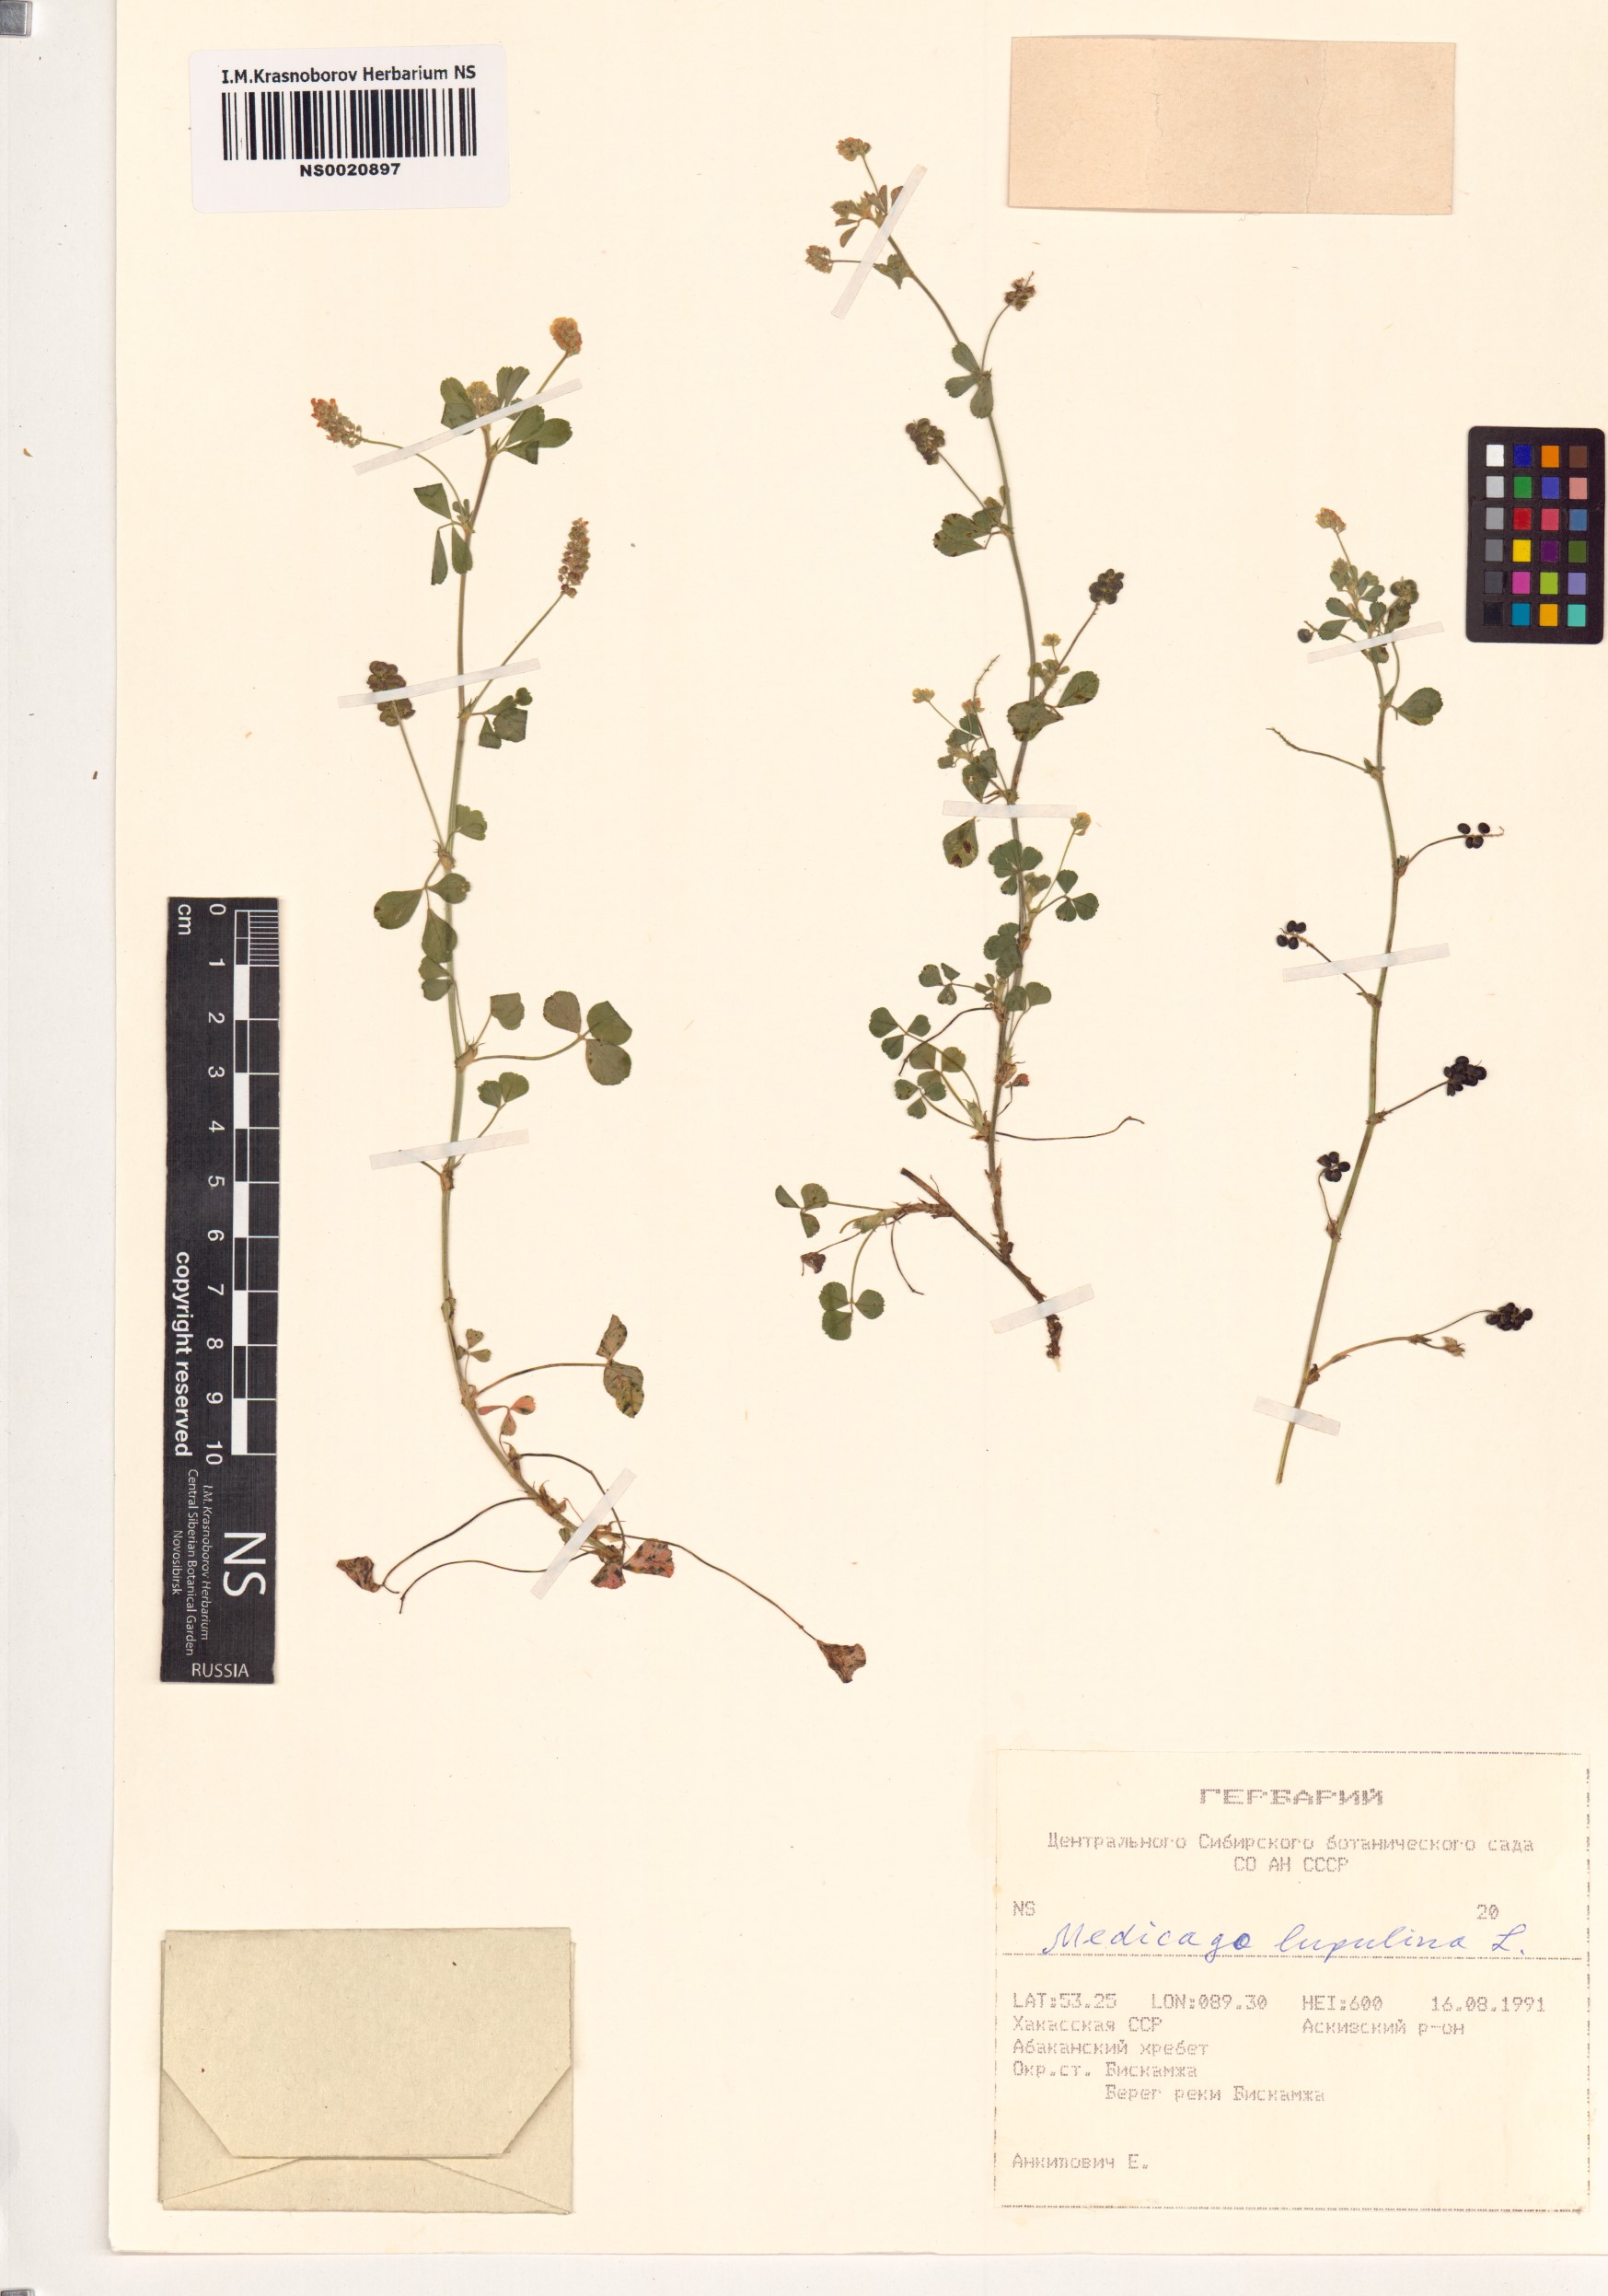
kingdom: Plantae
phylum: Tracheophyta
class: Magnoliopsida
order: Fabales
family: Fabaceae
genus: Medicago
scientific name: Medicago lupulina
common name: Black medick
